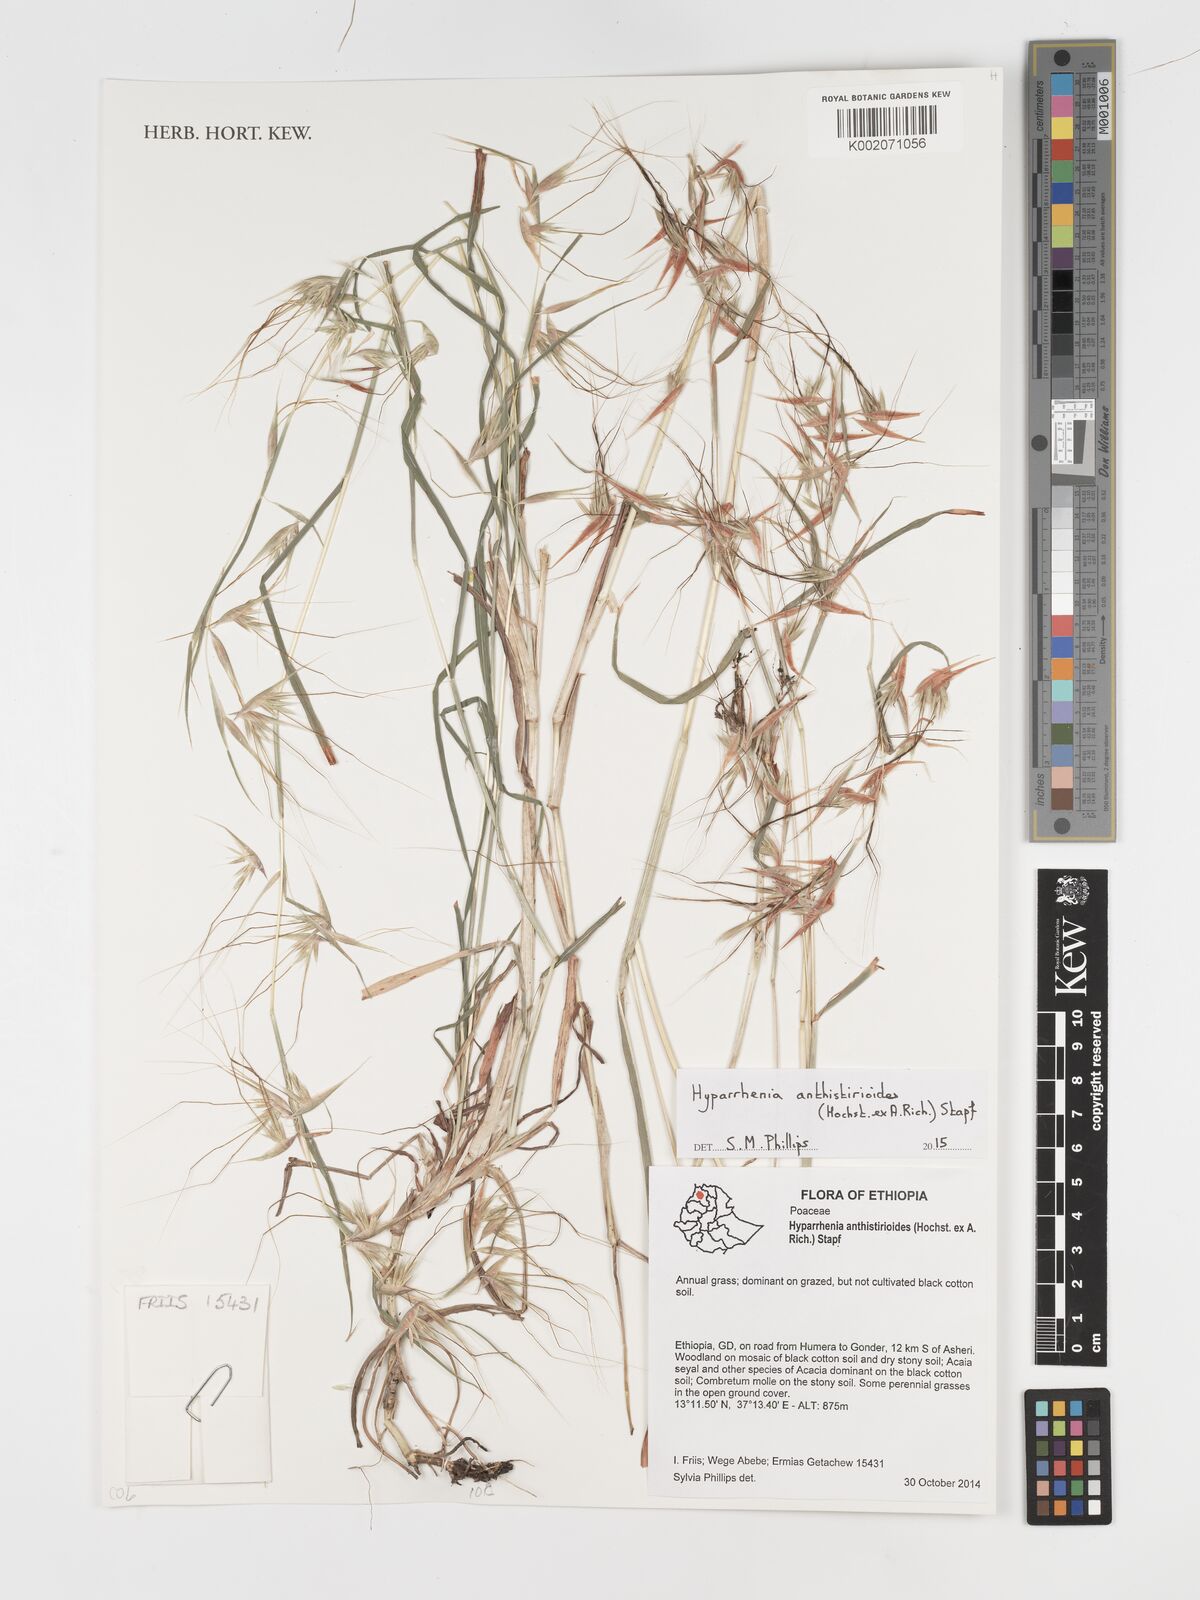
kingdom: Plantae
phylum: Tracheophyta
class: Liliopsida
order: Poales
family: Poaceae
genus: Hyparrhenia
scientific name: Hyparrhenia anthistirioides
